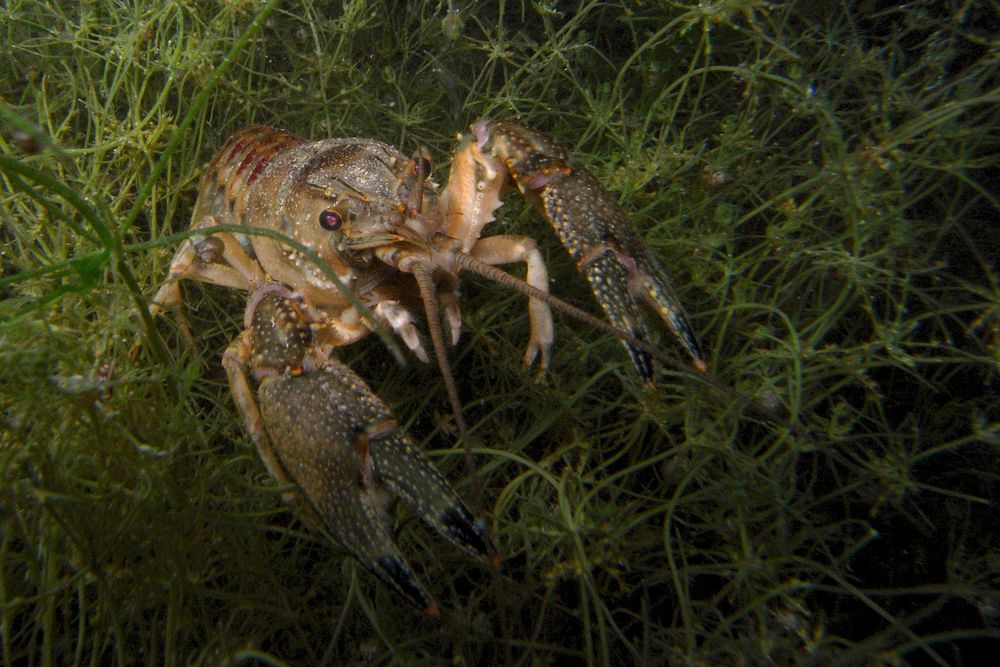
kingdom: Animalia
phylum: Arthropoda
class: Malacostraca
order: Decapoda
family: Cambaridae
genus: Faxonius
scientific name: Faxonius limosus
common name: American crayfish
